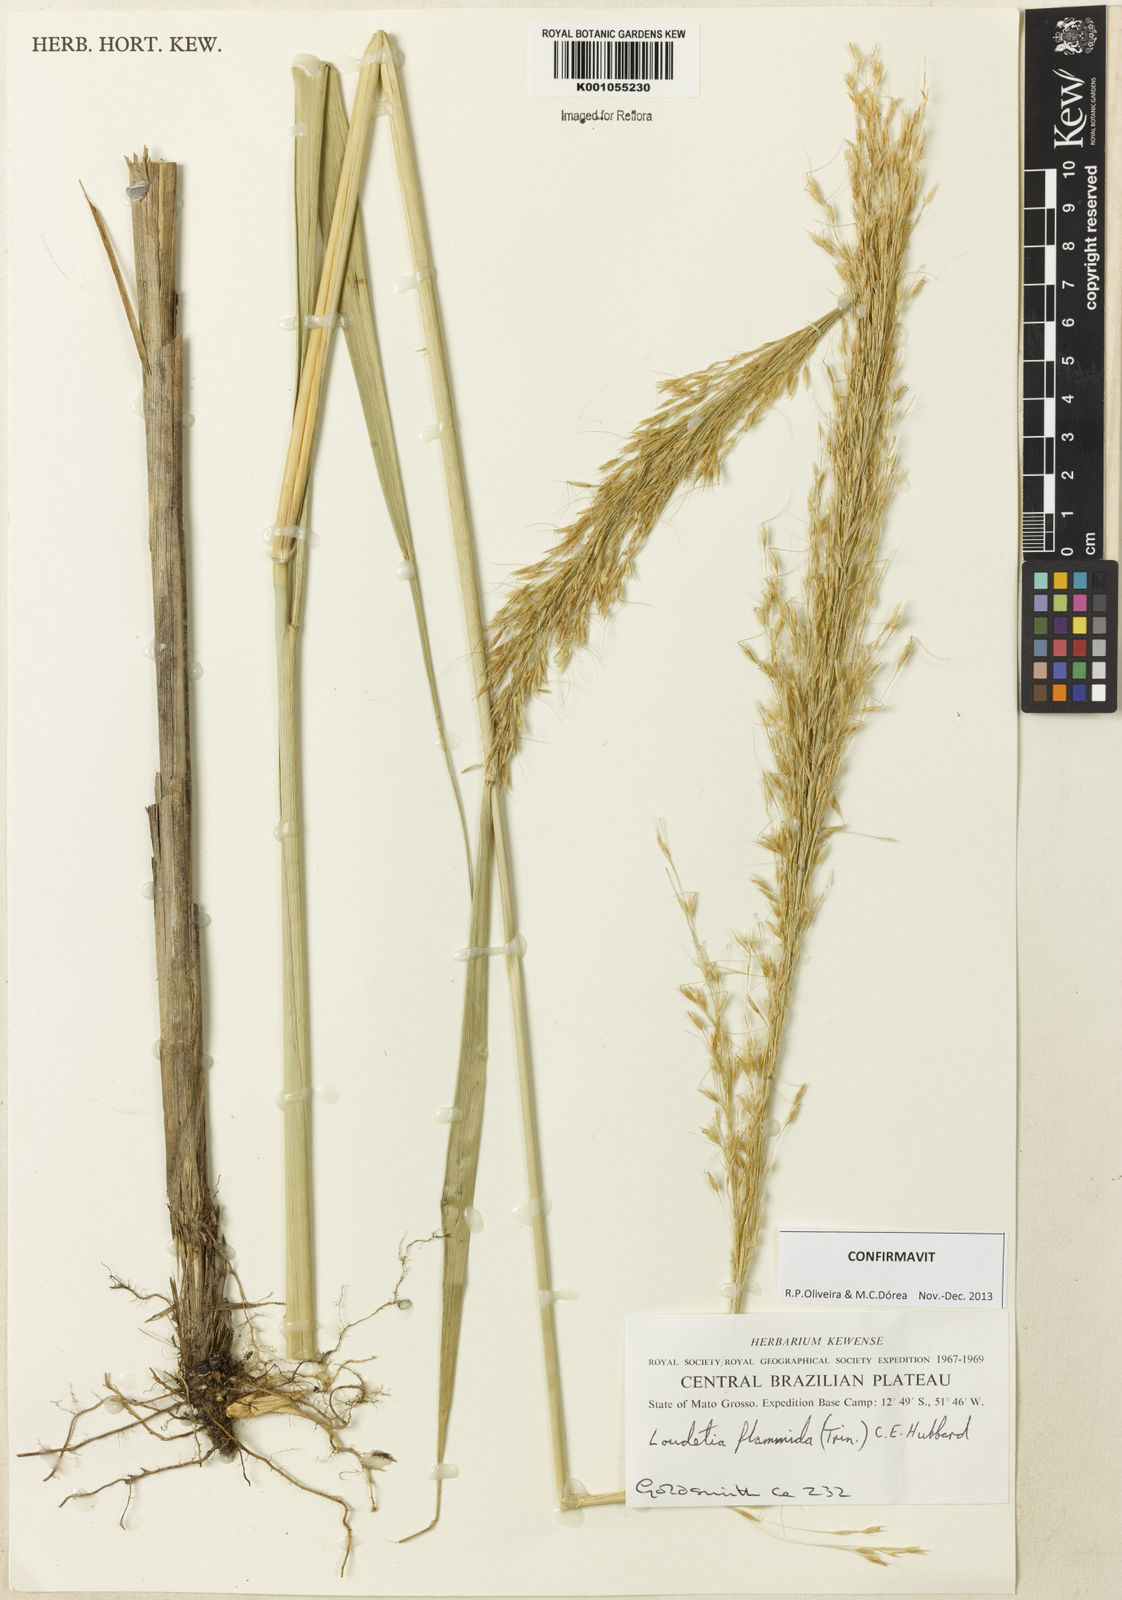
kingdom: Plantae
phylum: Tracheophyta
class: Liliopsida
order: Poales
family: Poaceae
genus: Loudetia
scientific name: Loudetia flammida
